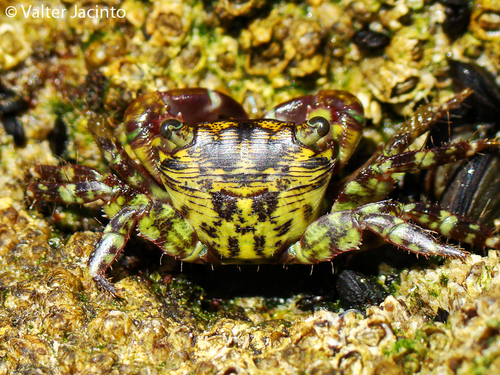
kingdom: Animalia
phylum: Arthropoda
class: Malacostraca
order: Decapoda
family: Grapsidae
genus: Pachygrapsus
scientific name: Pachygrapsus transversus
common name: Mottled shore crab
